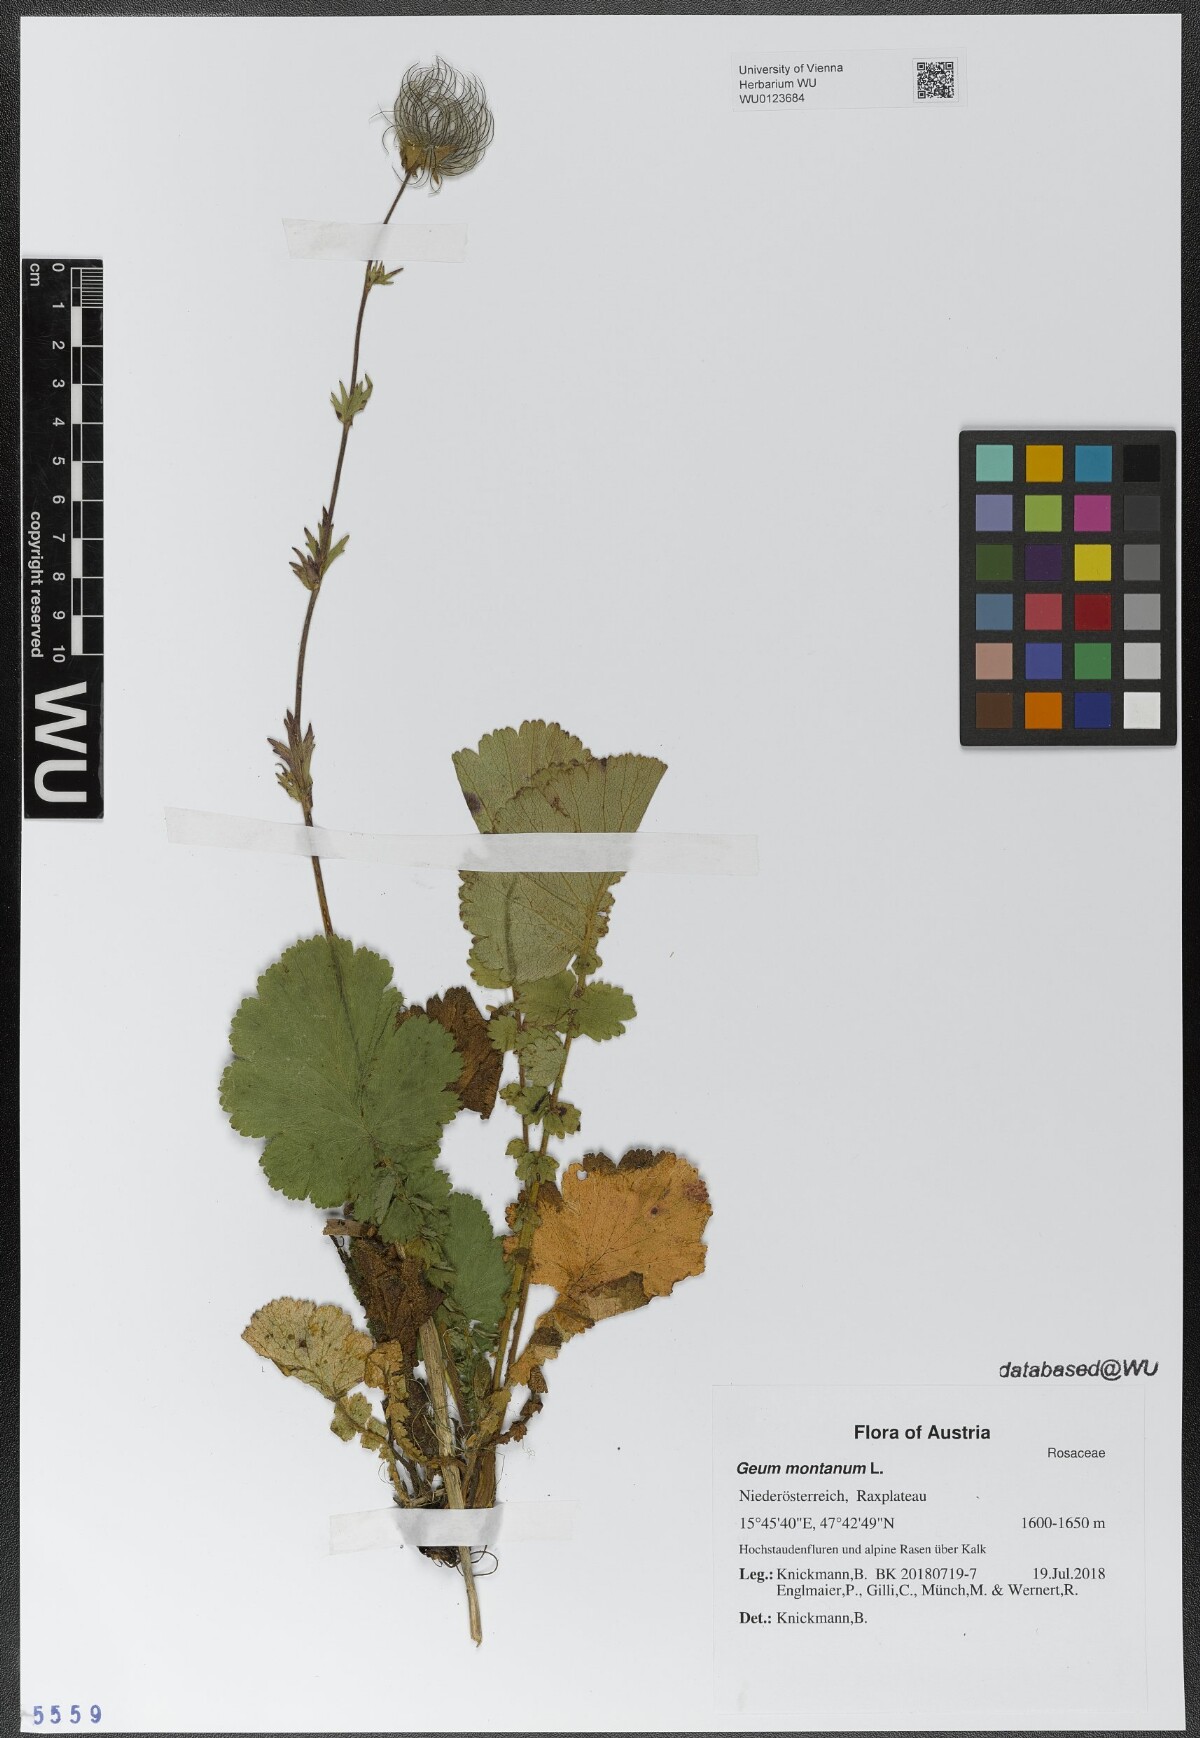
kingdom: Plantae
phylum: Tracheophyta
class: Magnoliopsida
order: Rosales
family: Rosaceae
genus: Geum
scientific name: Geum montanum
